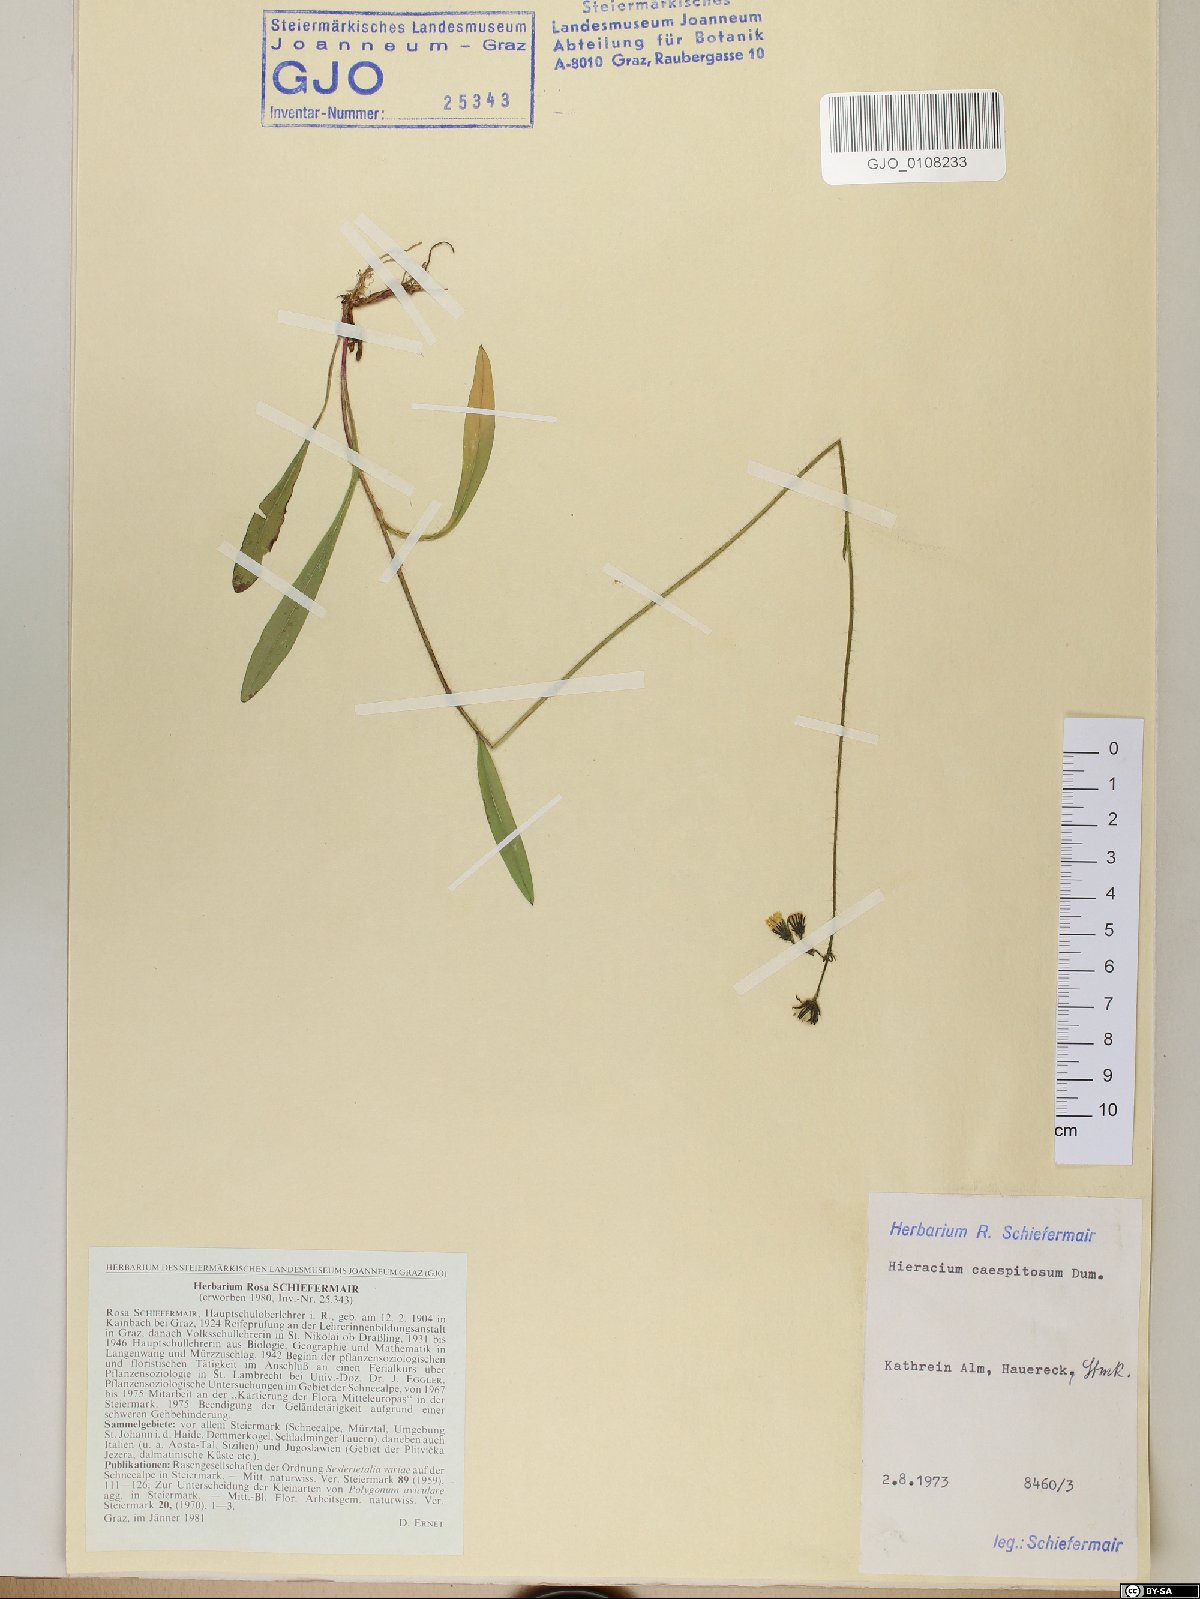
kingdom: Plantae
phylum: Tracheophyta
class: Magnoliopsida
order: Asterales
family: Asteraceae
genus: Pilosella
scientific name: Pilosella caespitosa
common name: Yellow fox-and-cubs
